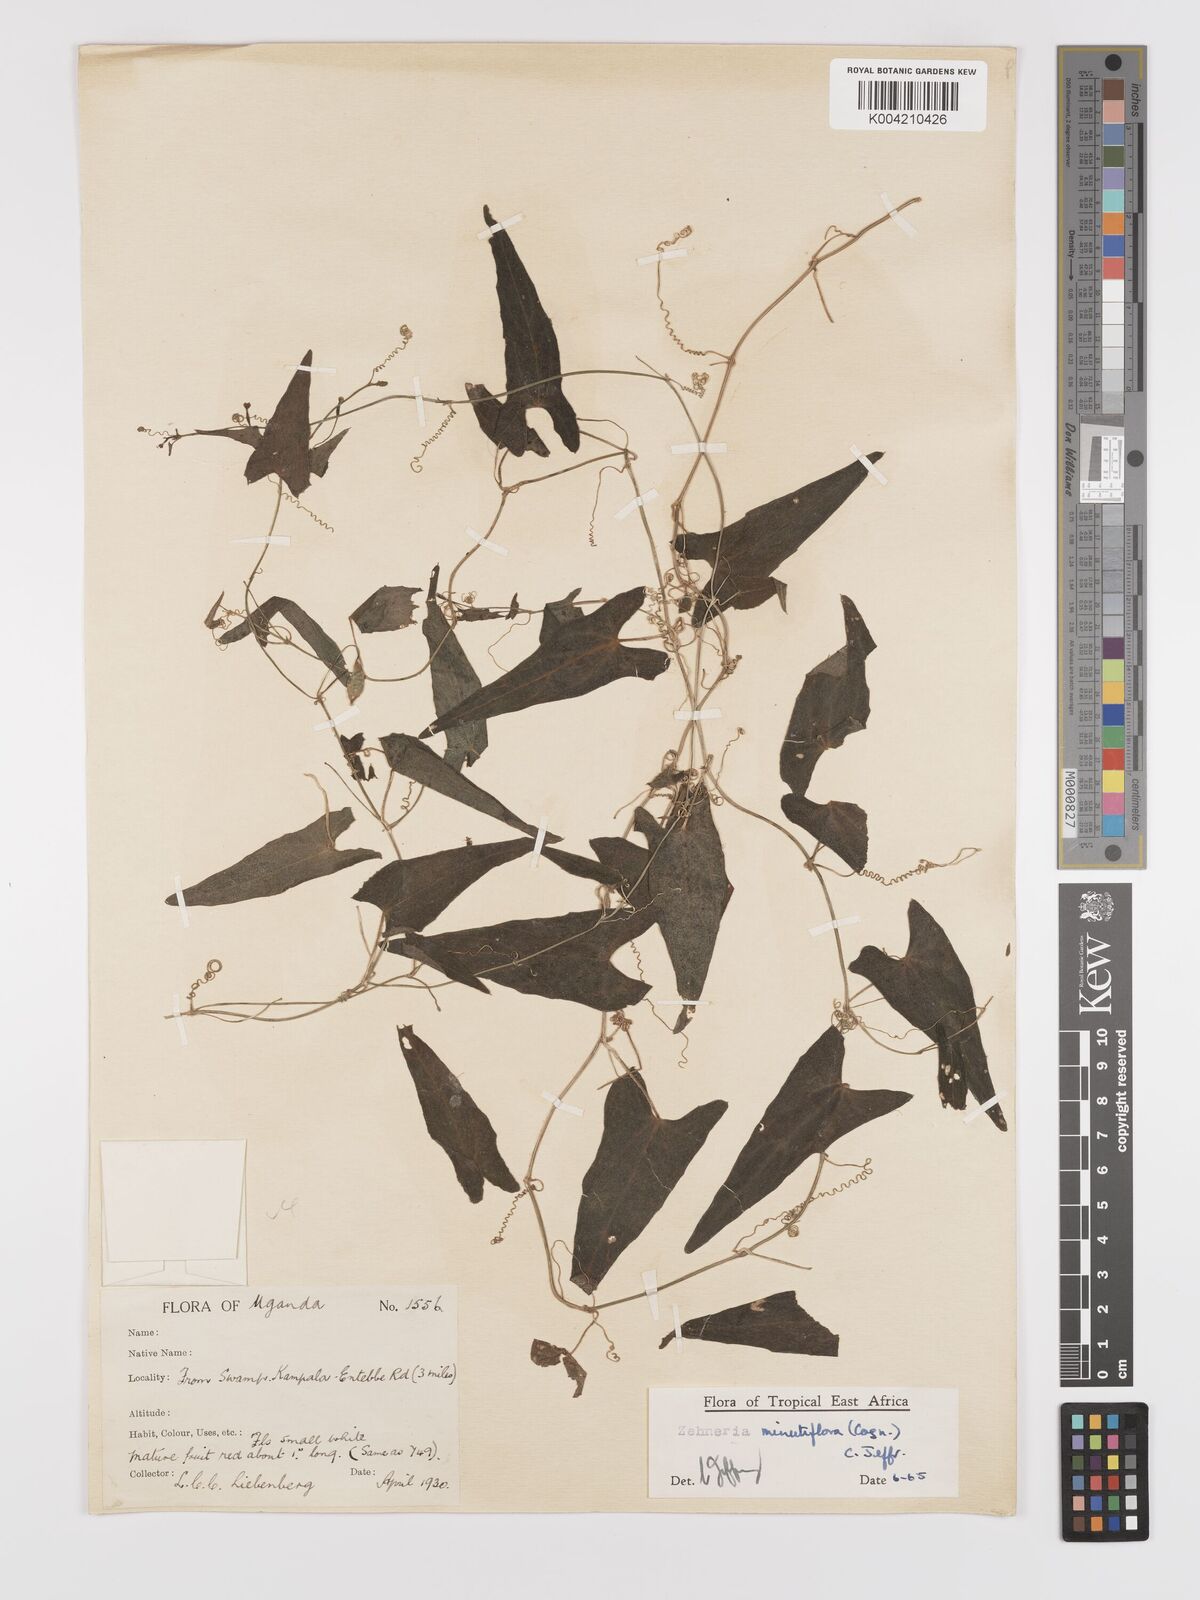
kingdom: Plantae
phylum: Tracheophyta
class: Magnoliopsida
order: Cucurbitales
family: Cucurbitaceae
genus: Zehneria
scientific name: Zehneria minutiflora
